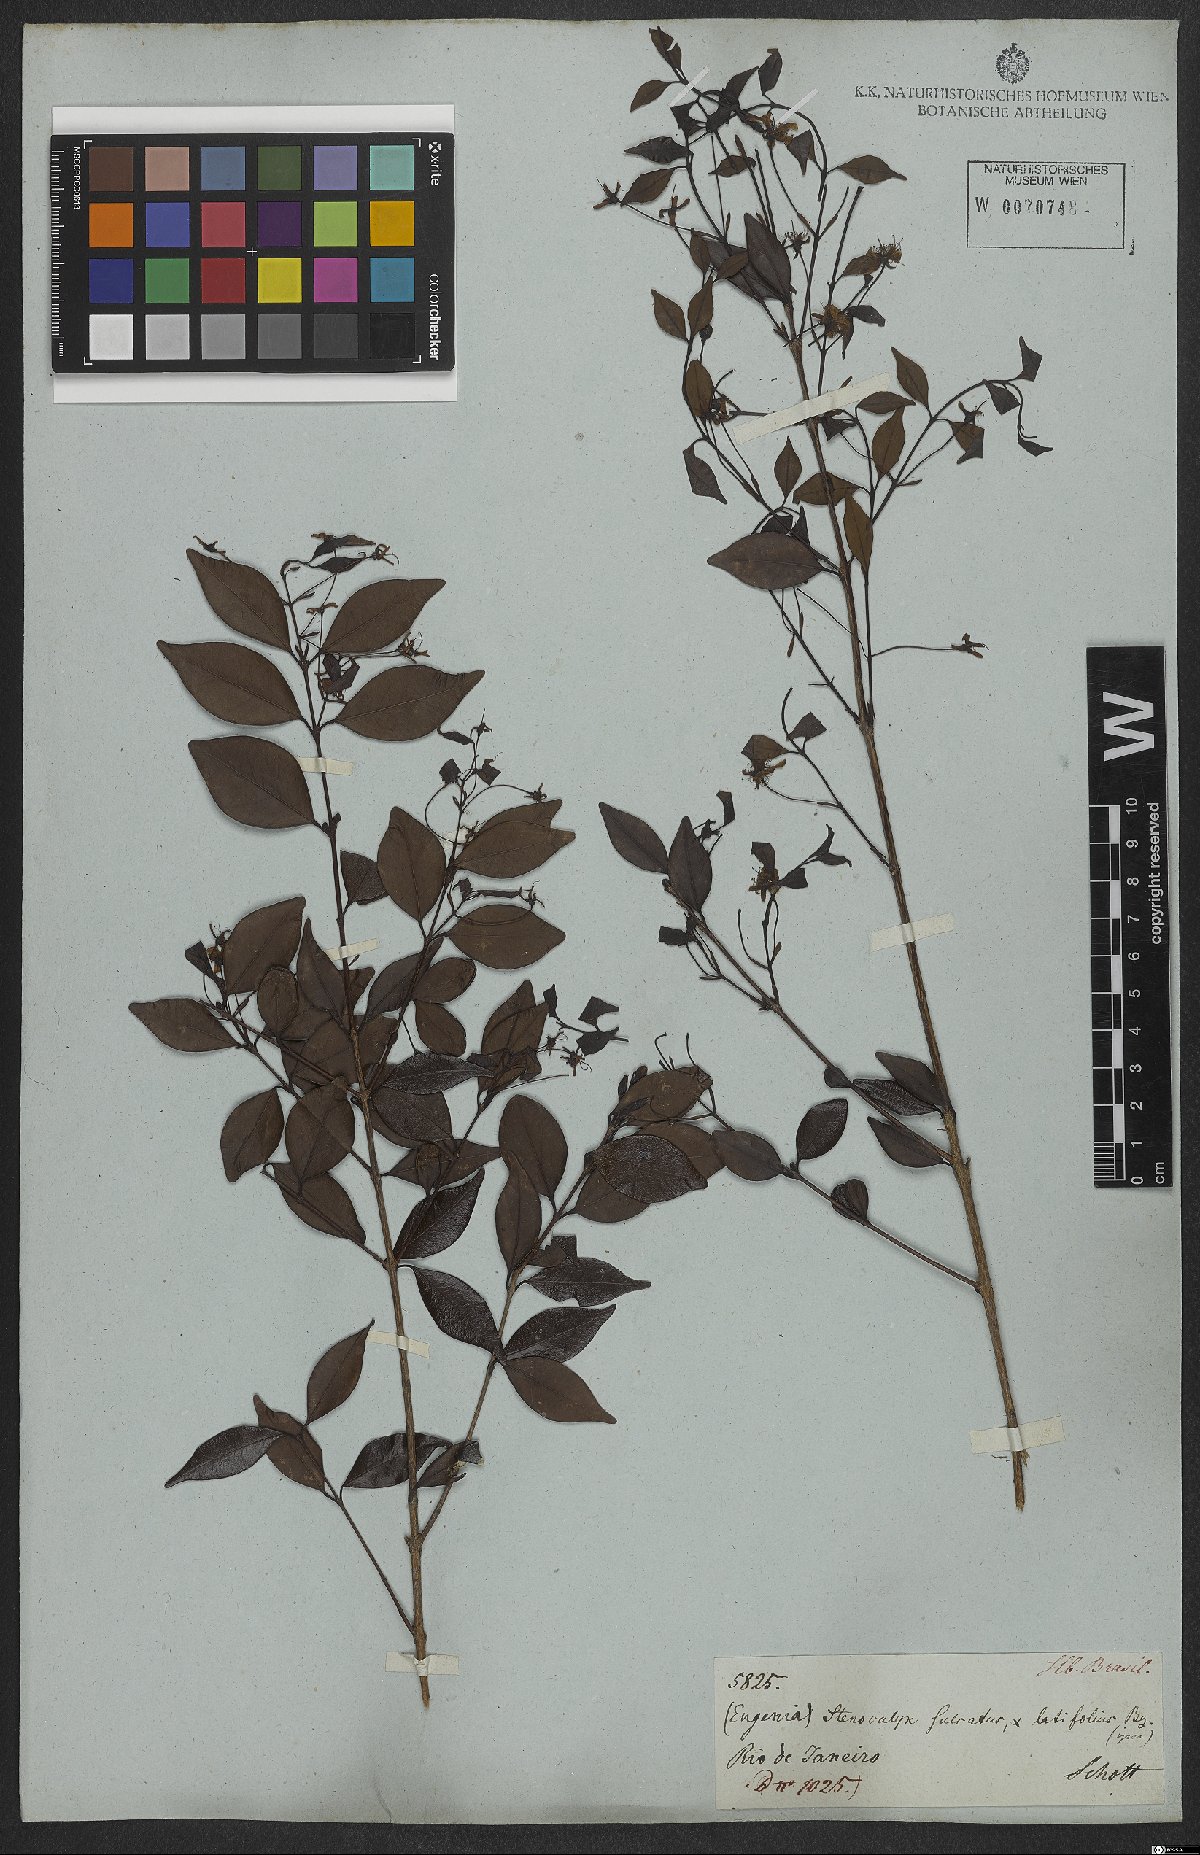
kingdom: Plantae
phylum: Tracheophyta
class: Magnoliopsida
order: Myrtales
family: Myrtaceae
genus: Eugenia
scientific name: Eugenia sulcata
